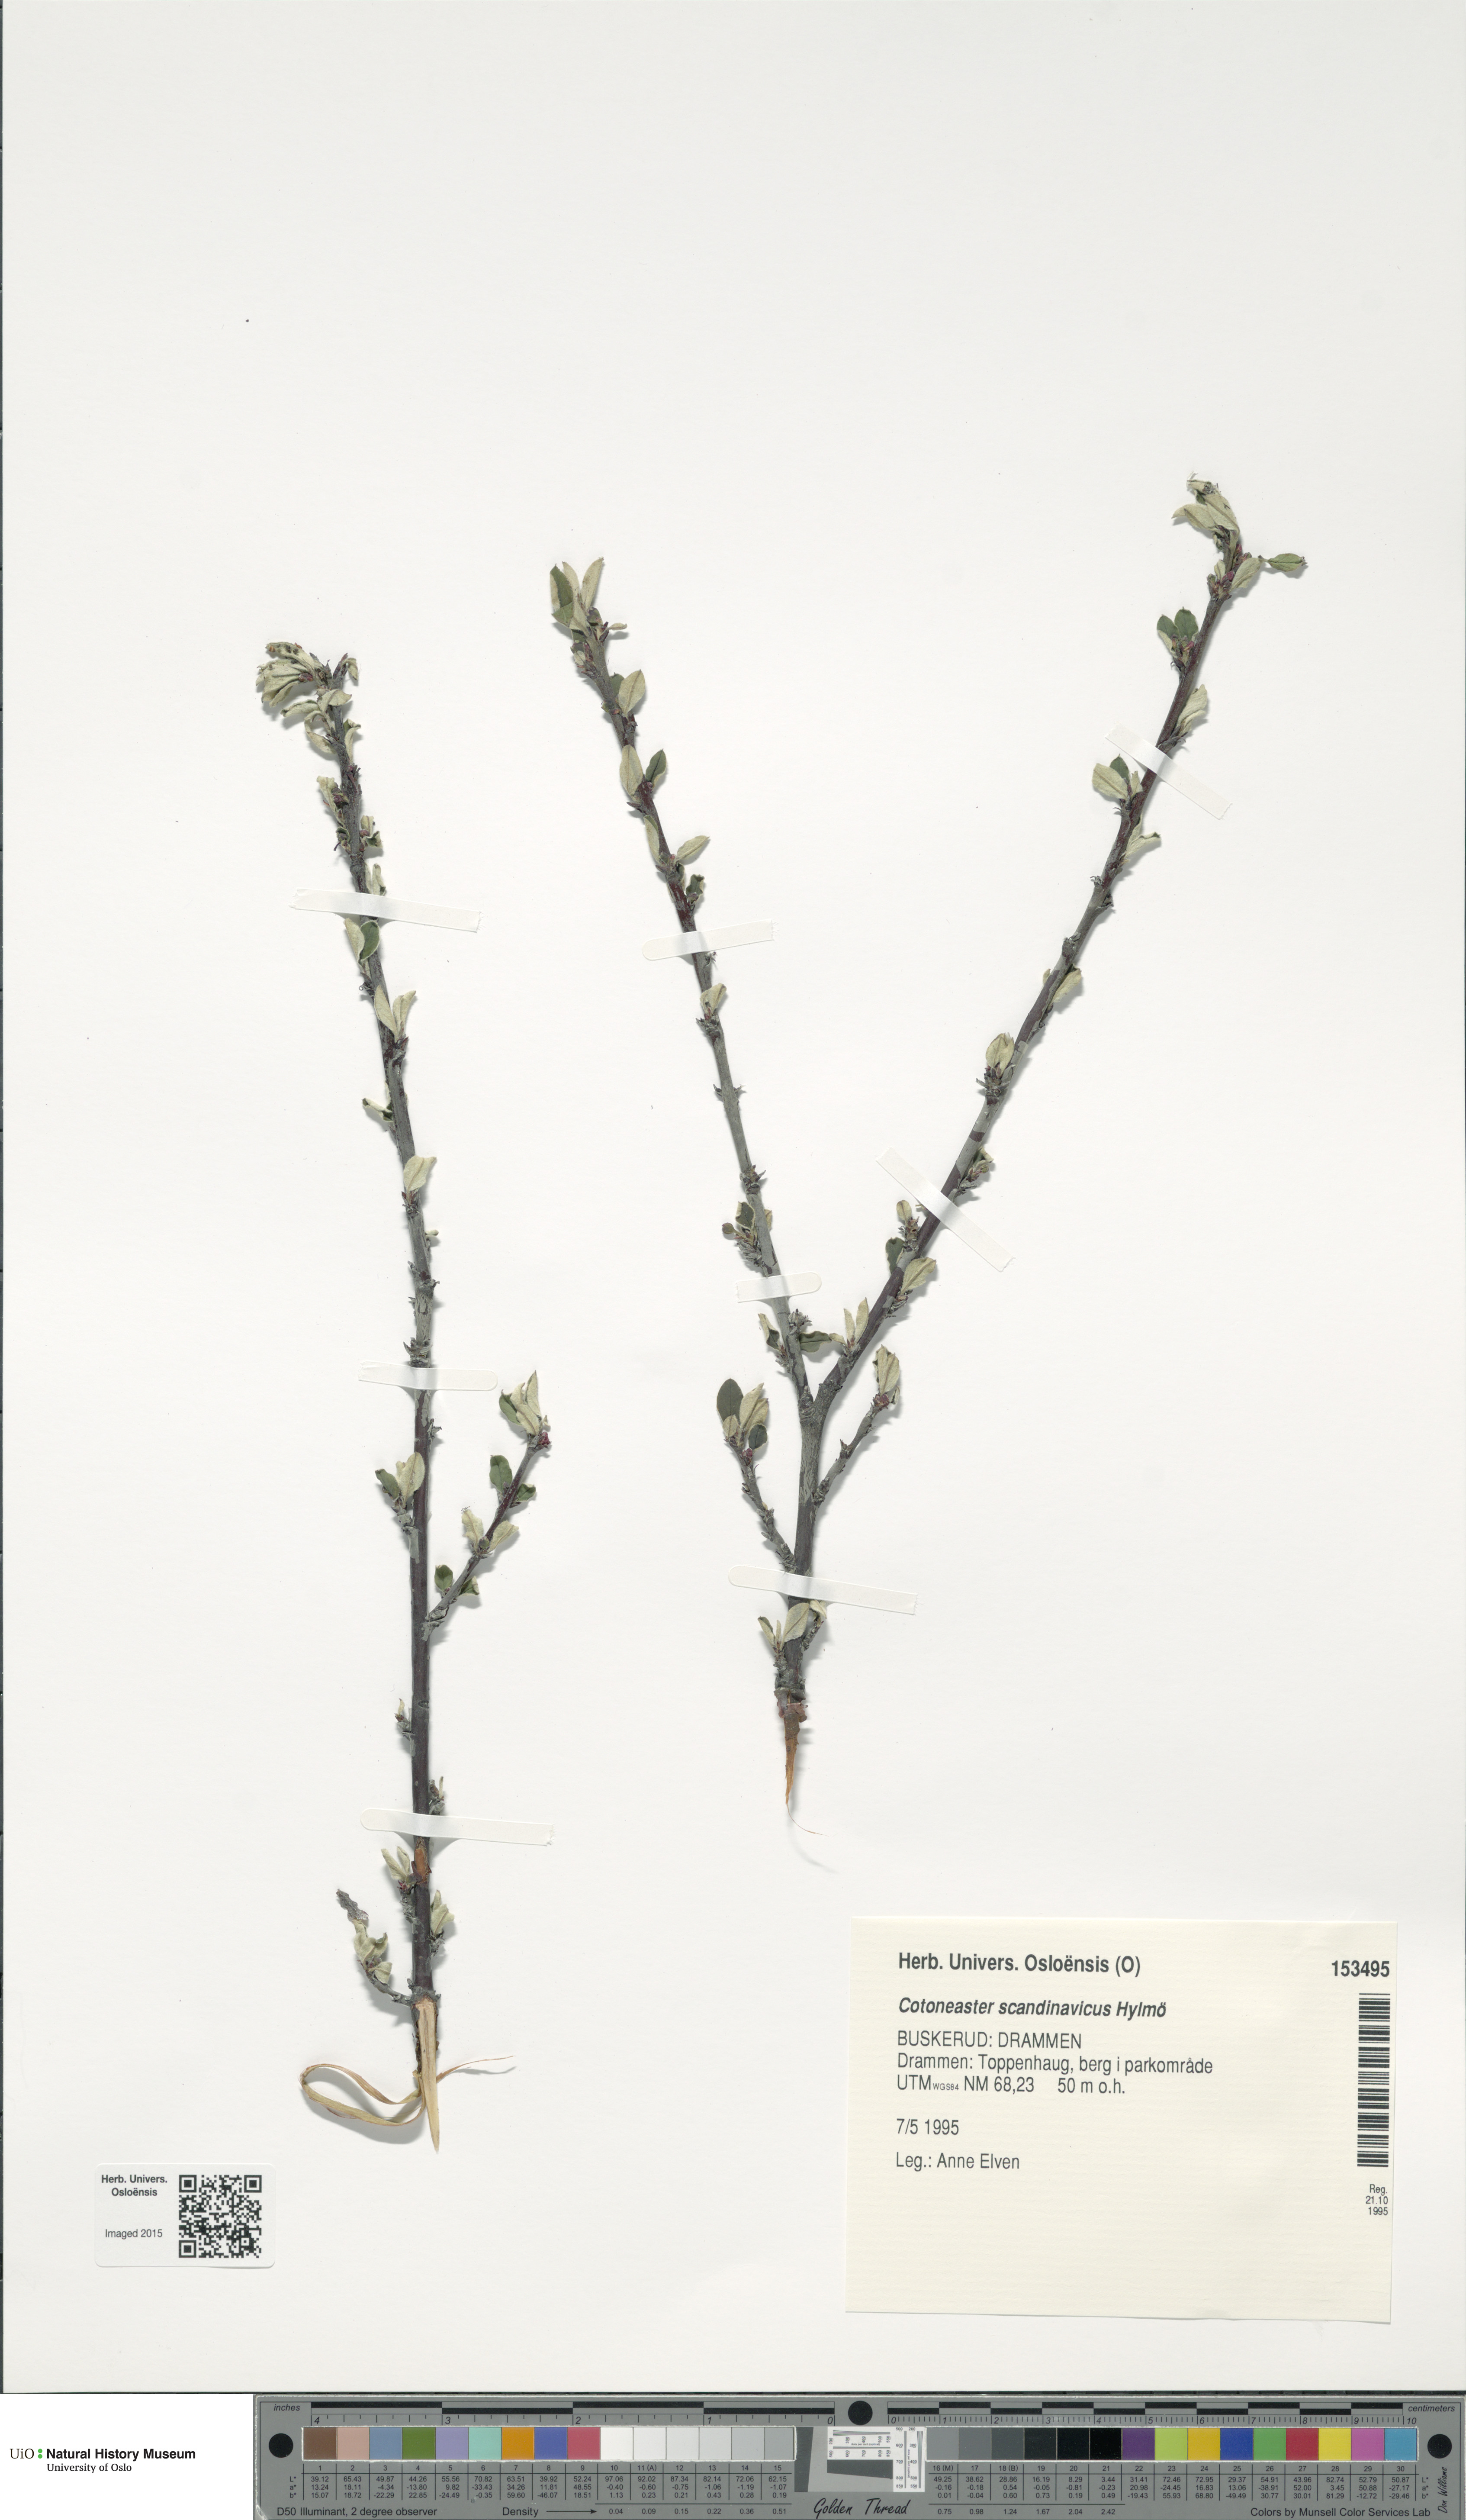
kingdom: Plantae
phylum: Tracheophyta
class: Magnoliopsida
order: Rosales
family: Rosaceae
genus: Cotoneaster
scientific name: Cotoneaster integerrimus
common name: Wild cotoneaster
